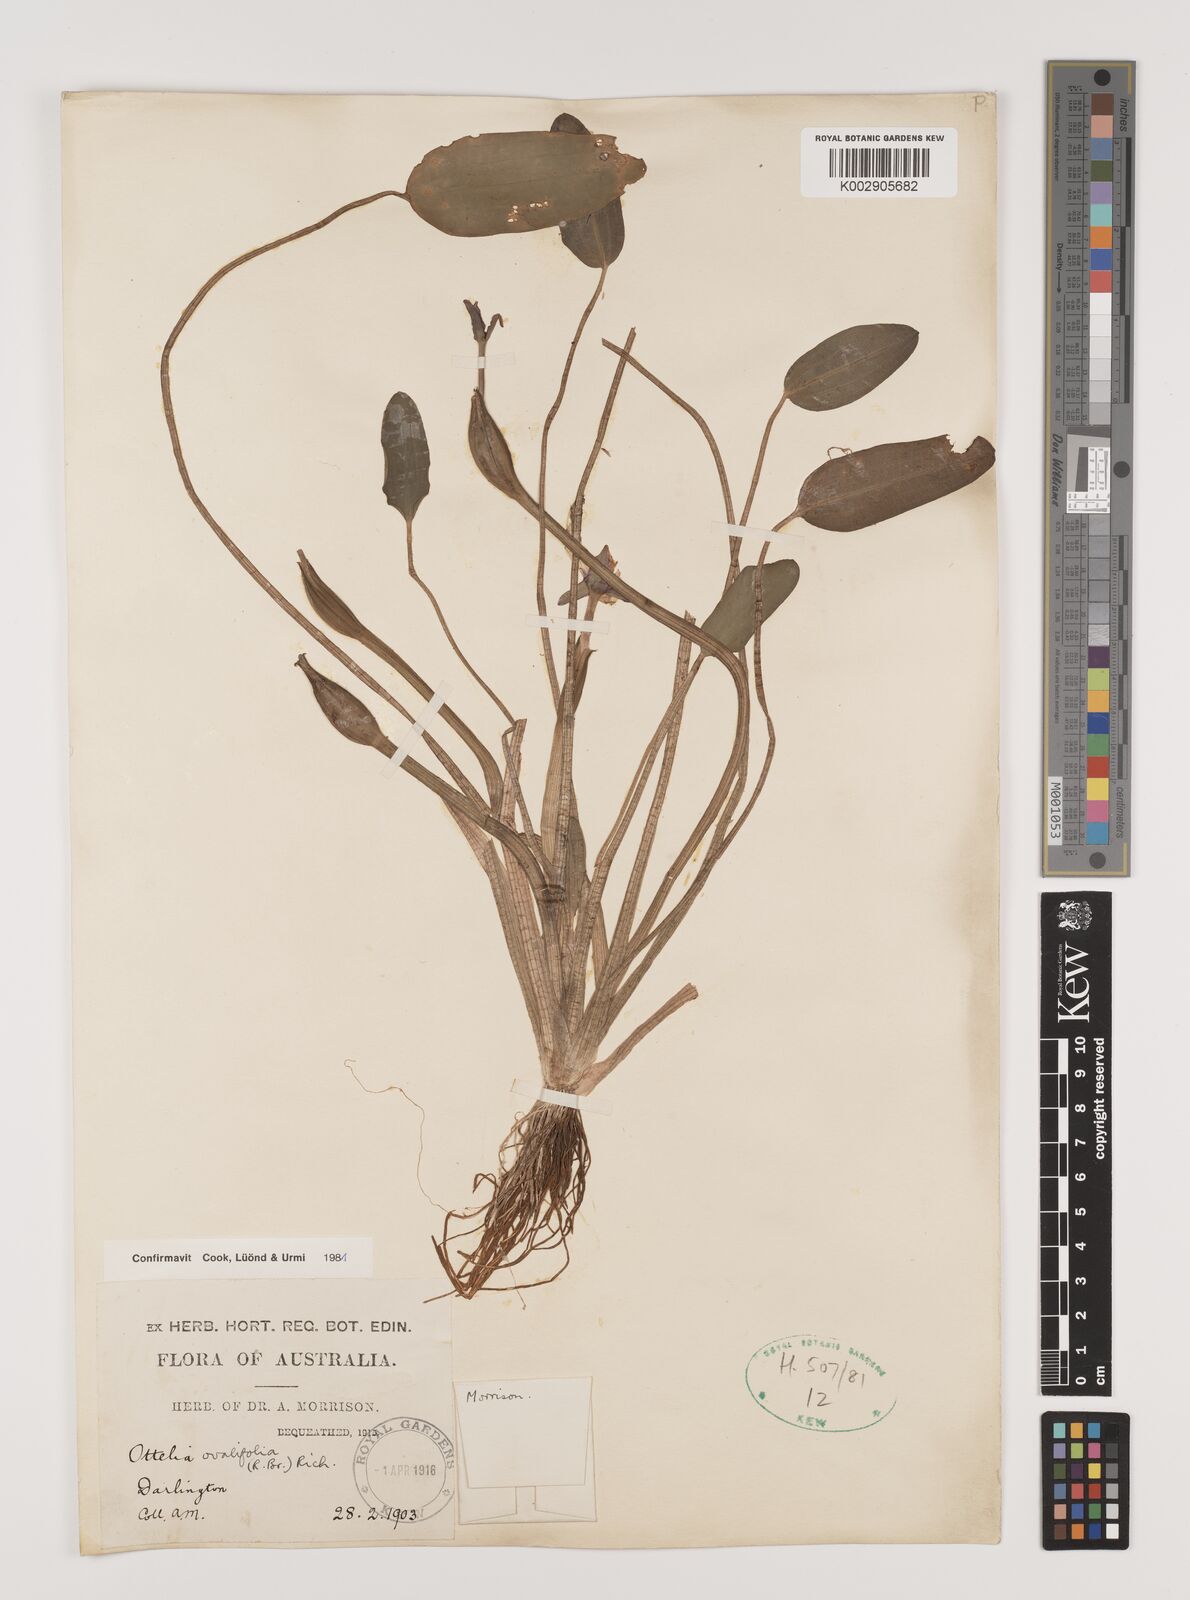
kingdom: Plantae
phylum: Tracheophyta
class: Liliopsida
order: Alismatales
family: Hydrocharitaceae
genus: Ottelia
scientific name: Ottelia ovalifolia
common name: Swamp-lily
